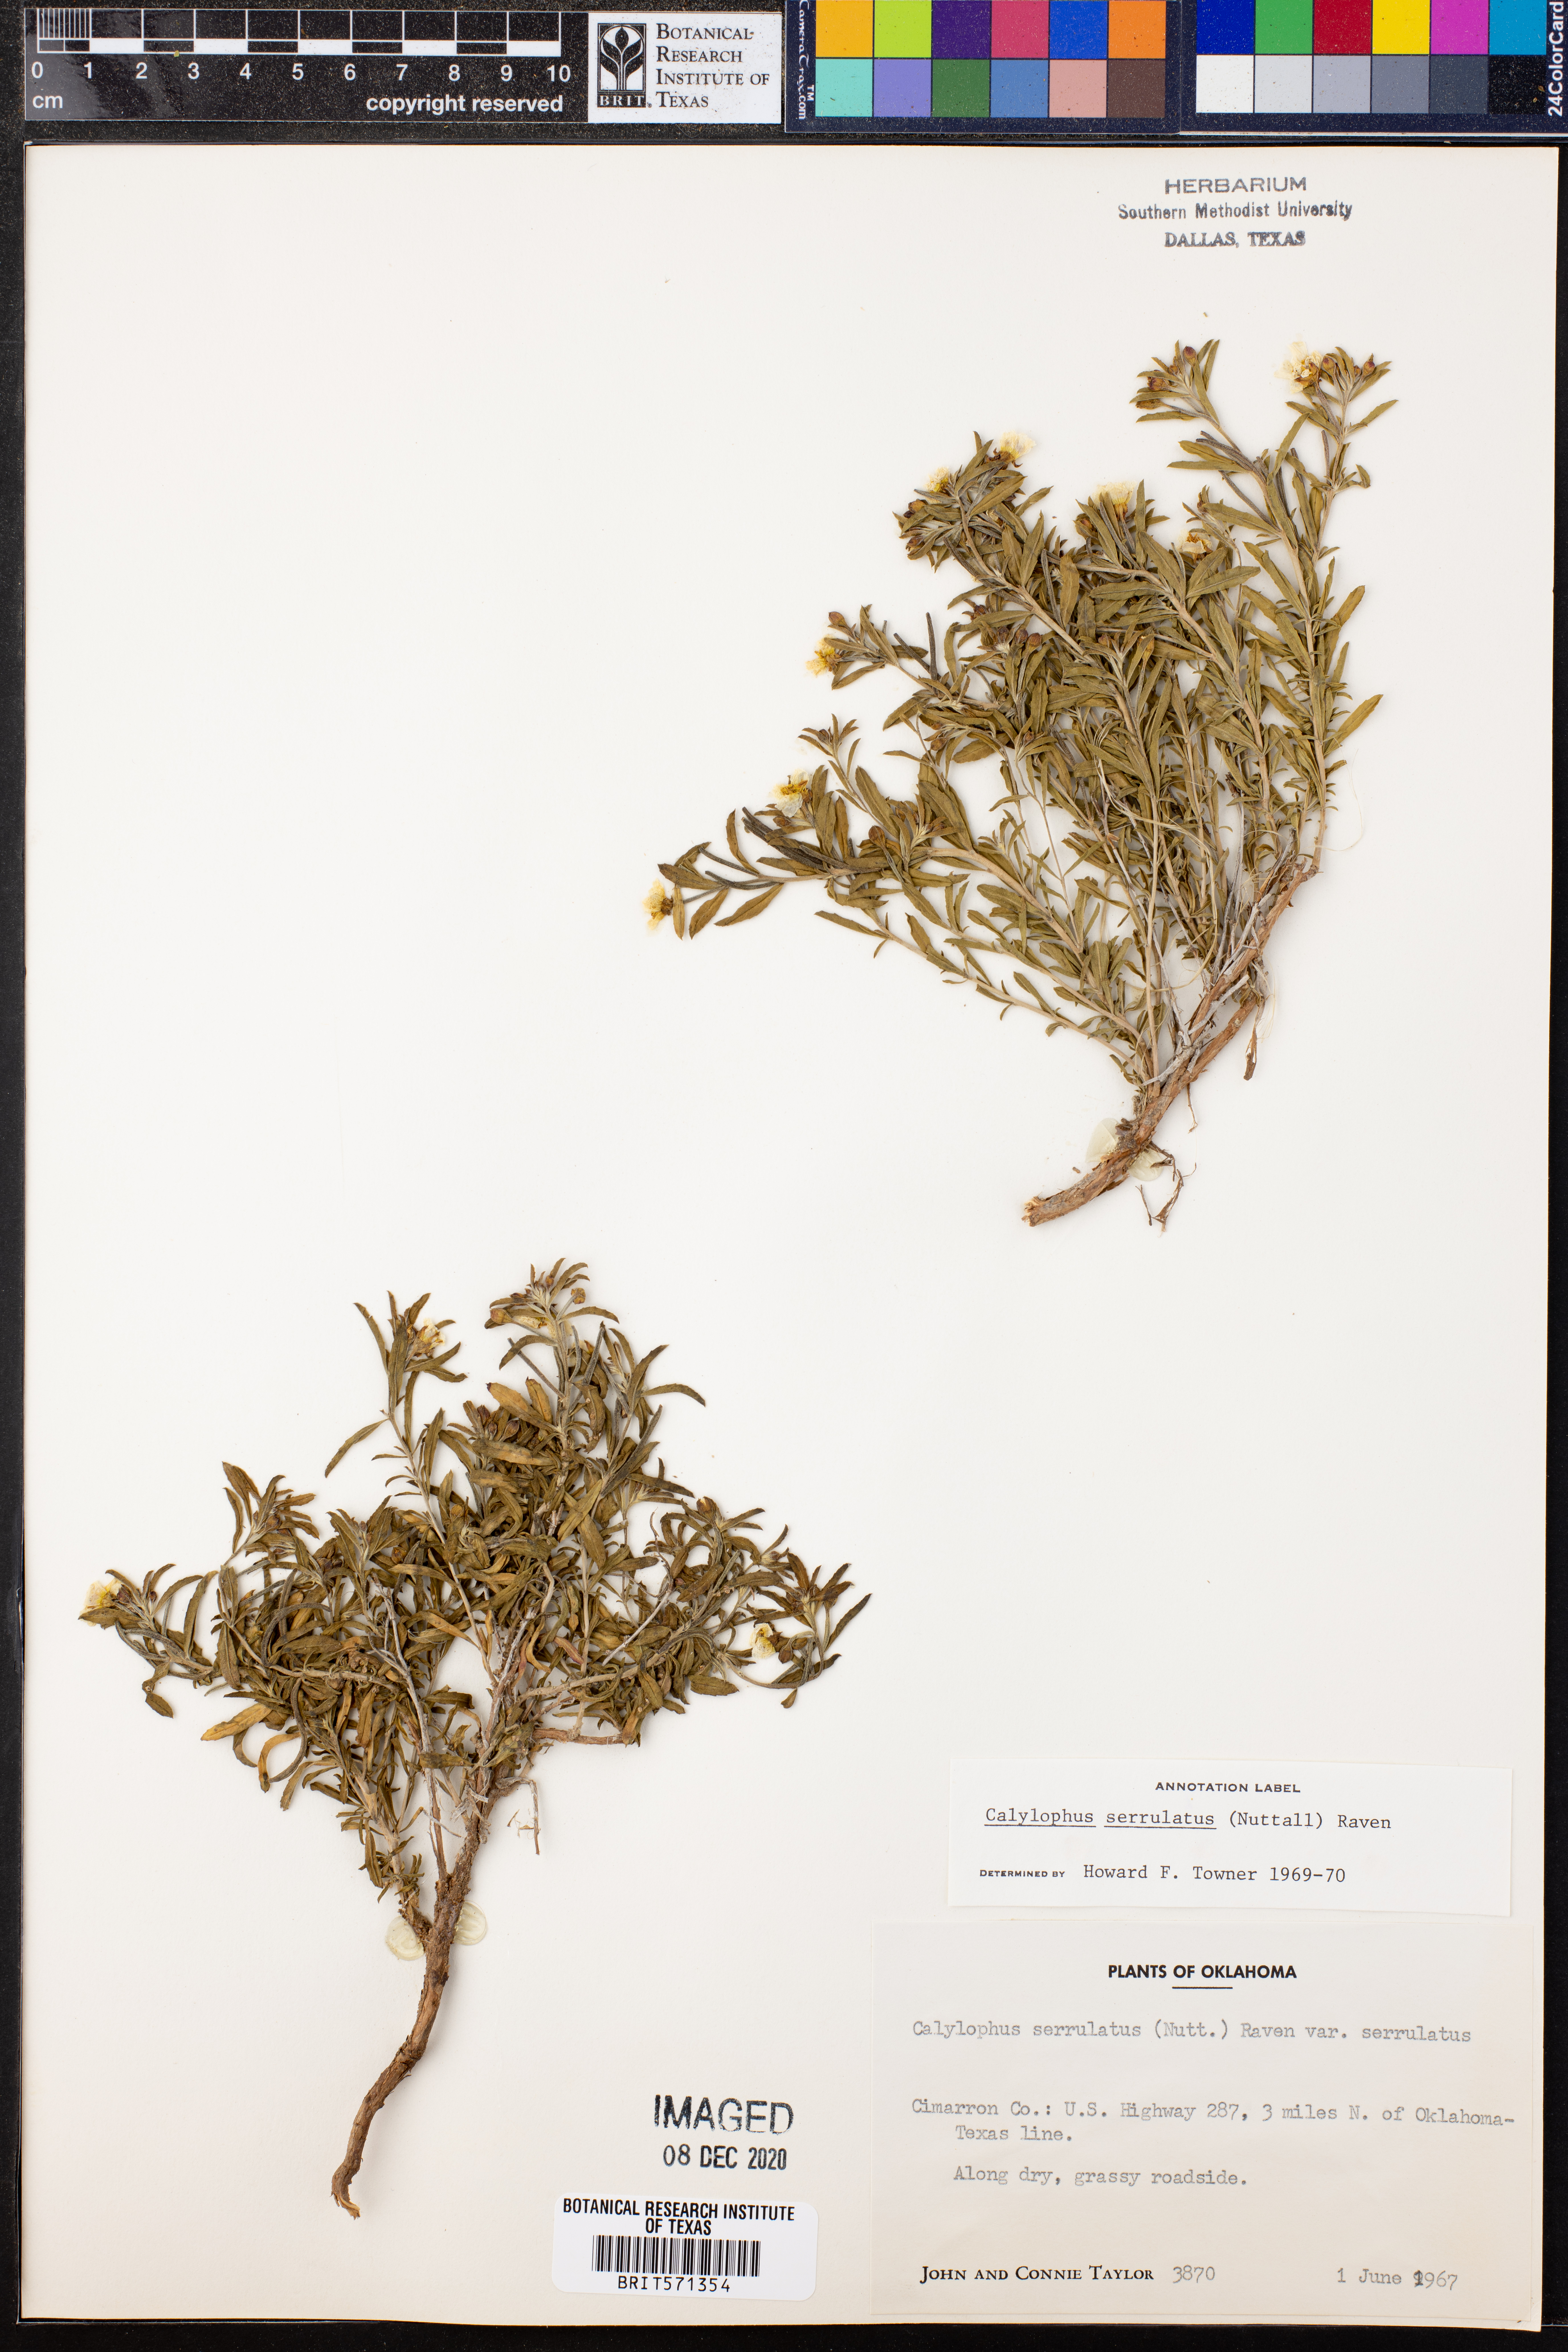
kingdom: Plantae
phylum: Tracheophyta
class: Magnoliopsida
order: Myrtales
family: Onagraceae
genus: Oenothera
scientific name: Oenothera serrulata
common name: Half-shrub calylophus
